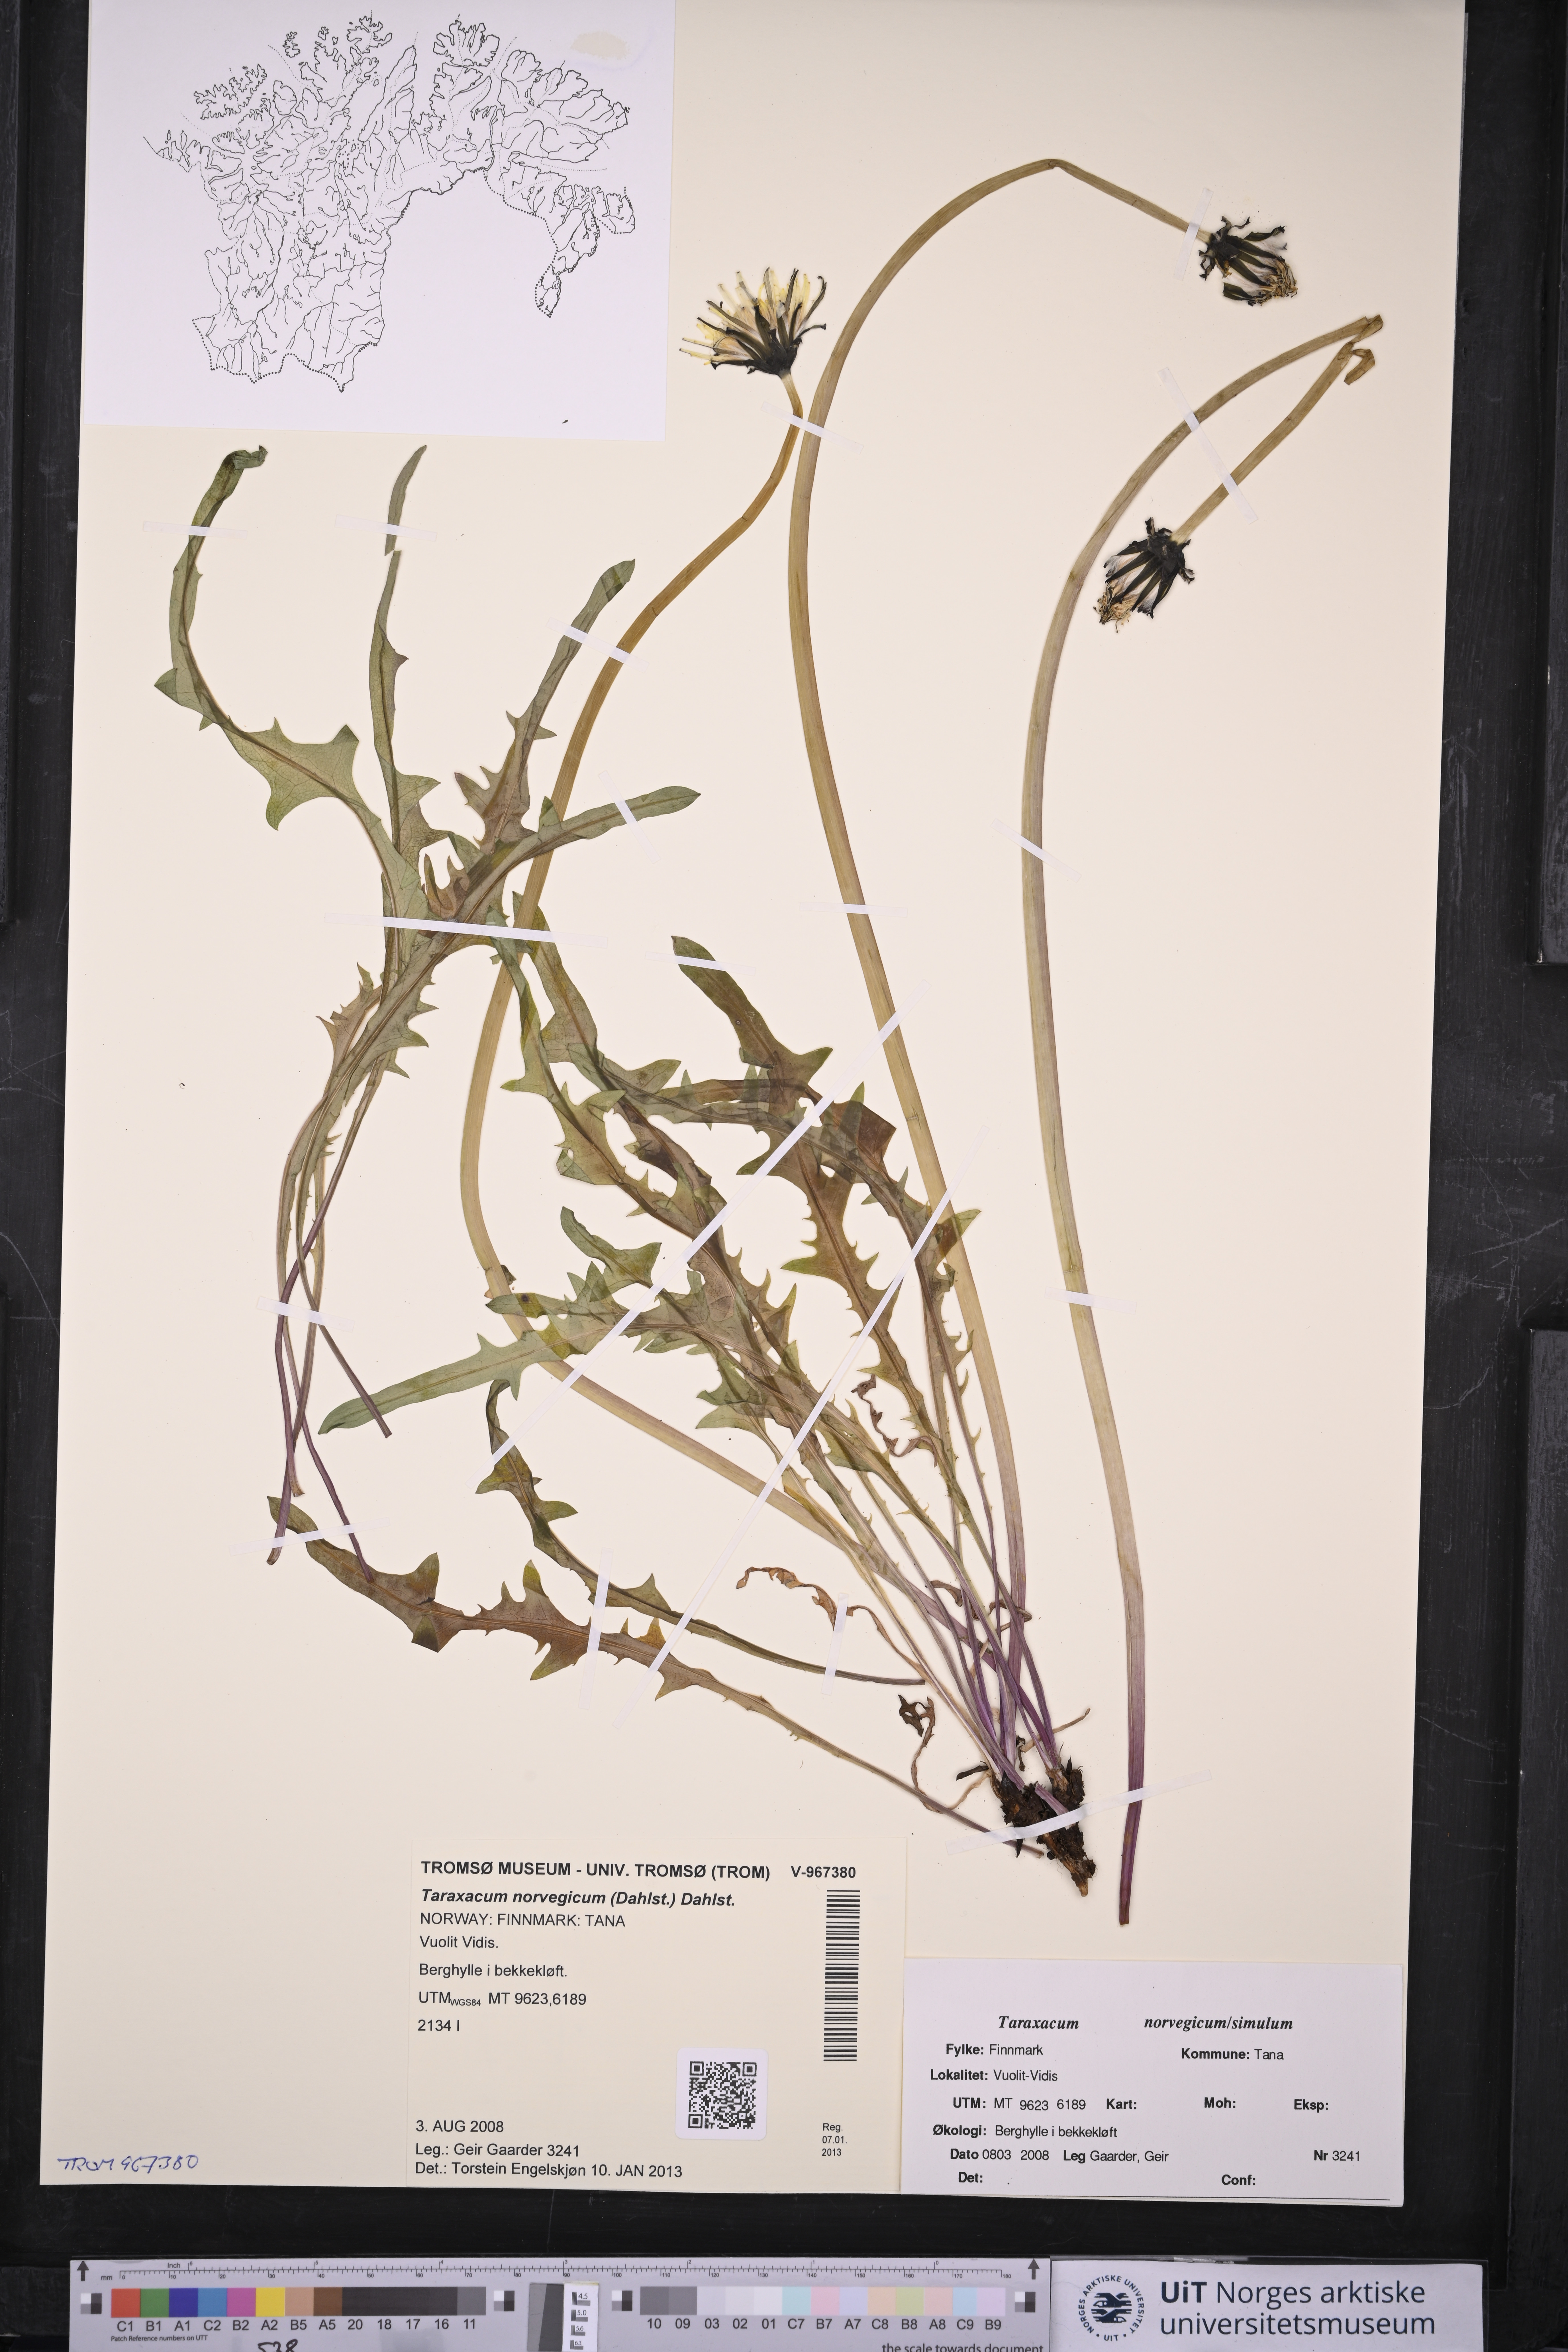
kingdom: Plantae
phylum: Tracheophyta
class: Magnoliopsida
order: Asterales
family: Asteraceae
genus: Taraxacum
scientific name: Taraxacum norvegicum
